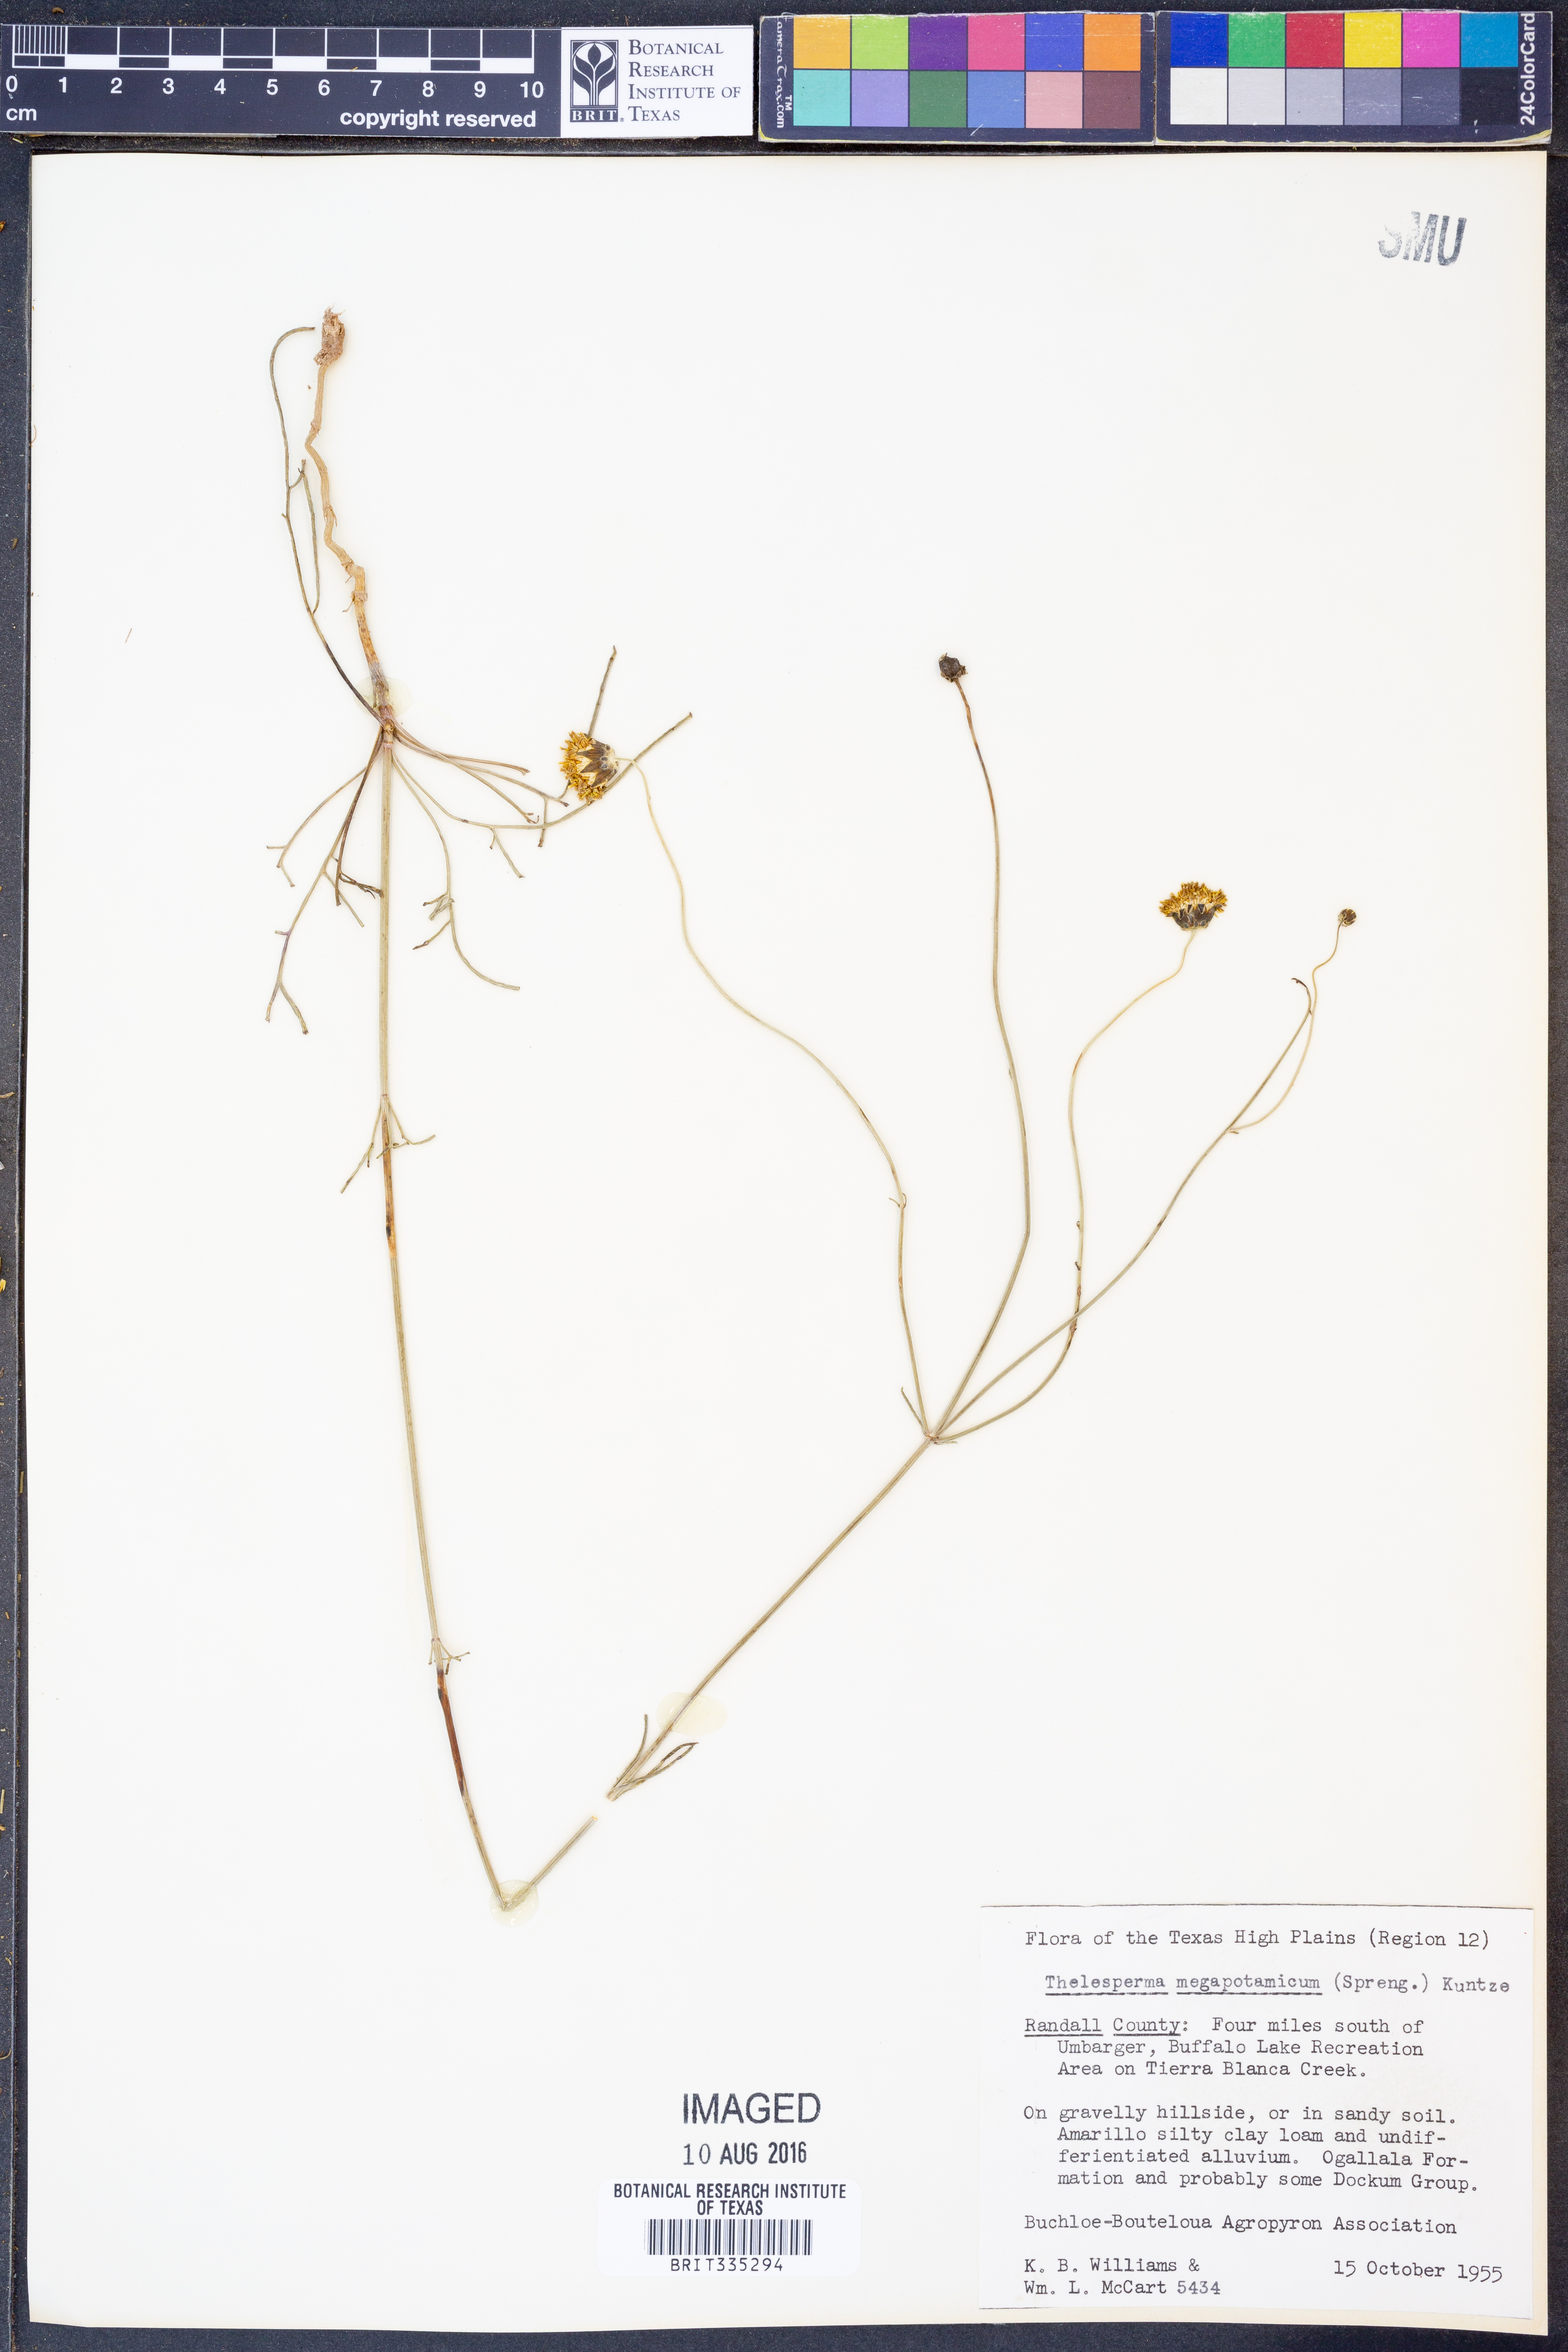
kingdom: Plantae
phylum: Tracheophyta
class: Magnoliopsida
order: Asterales
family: Asteraceae
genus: Thelesperma
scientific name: Thelesperma megapotamicum
